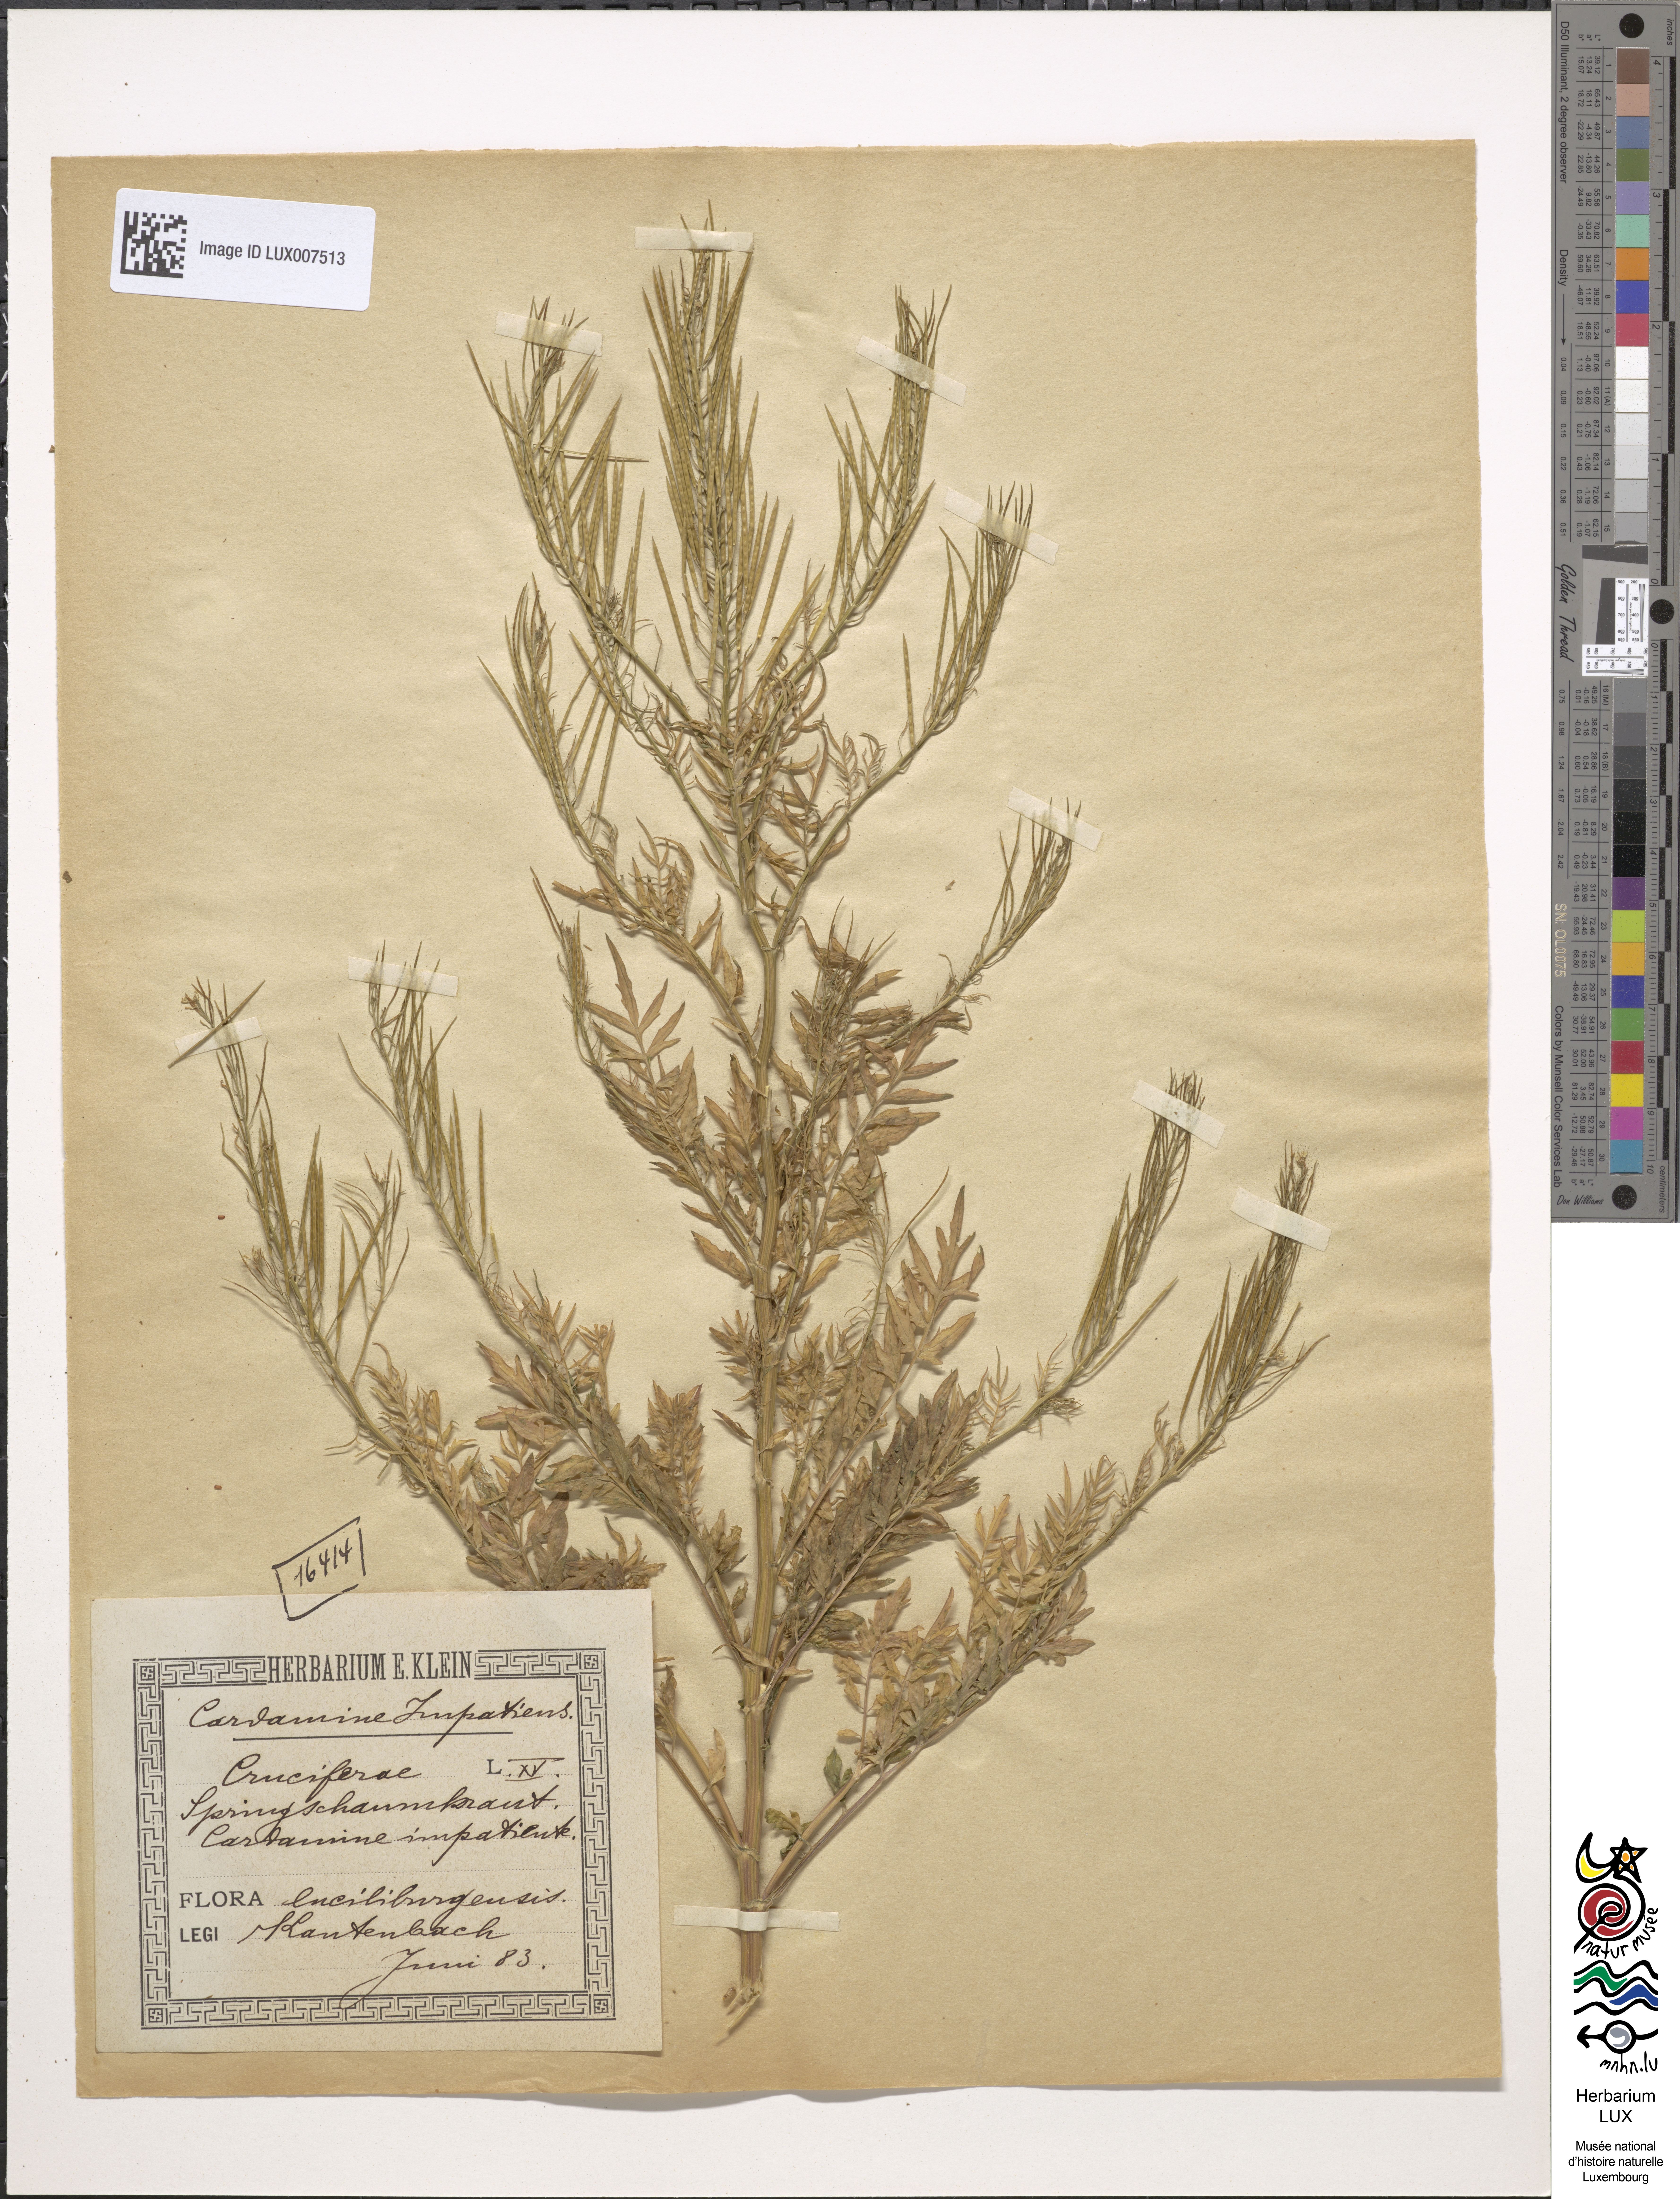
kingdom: Plantae
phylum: Tracheophyta
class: Magnoliopsida
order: Brassicales
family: Brassicaceae
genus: Cardamine
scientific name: Cardamine impatiens
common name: Narrow-leaved bitter-cress
